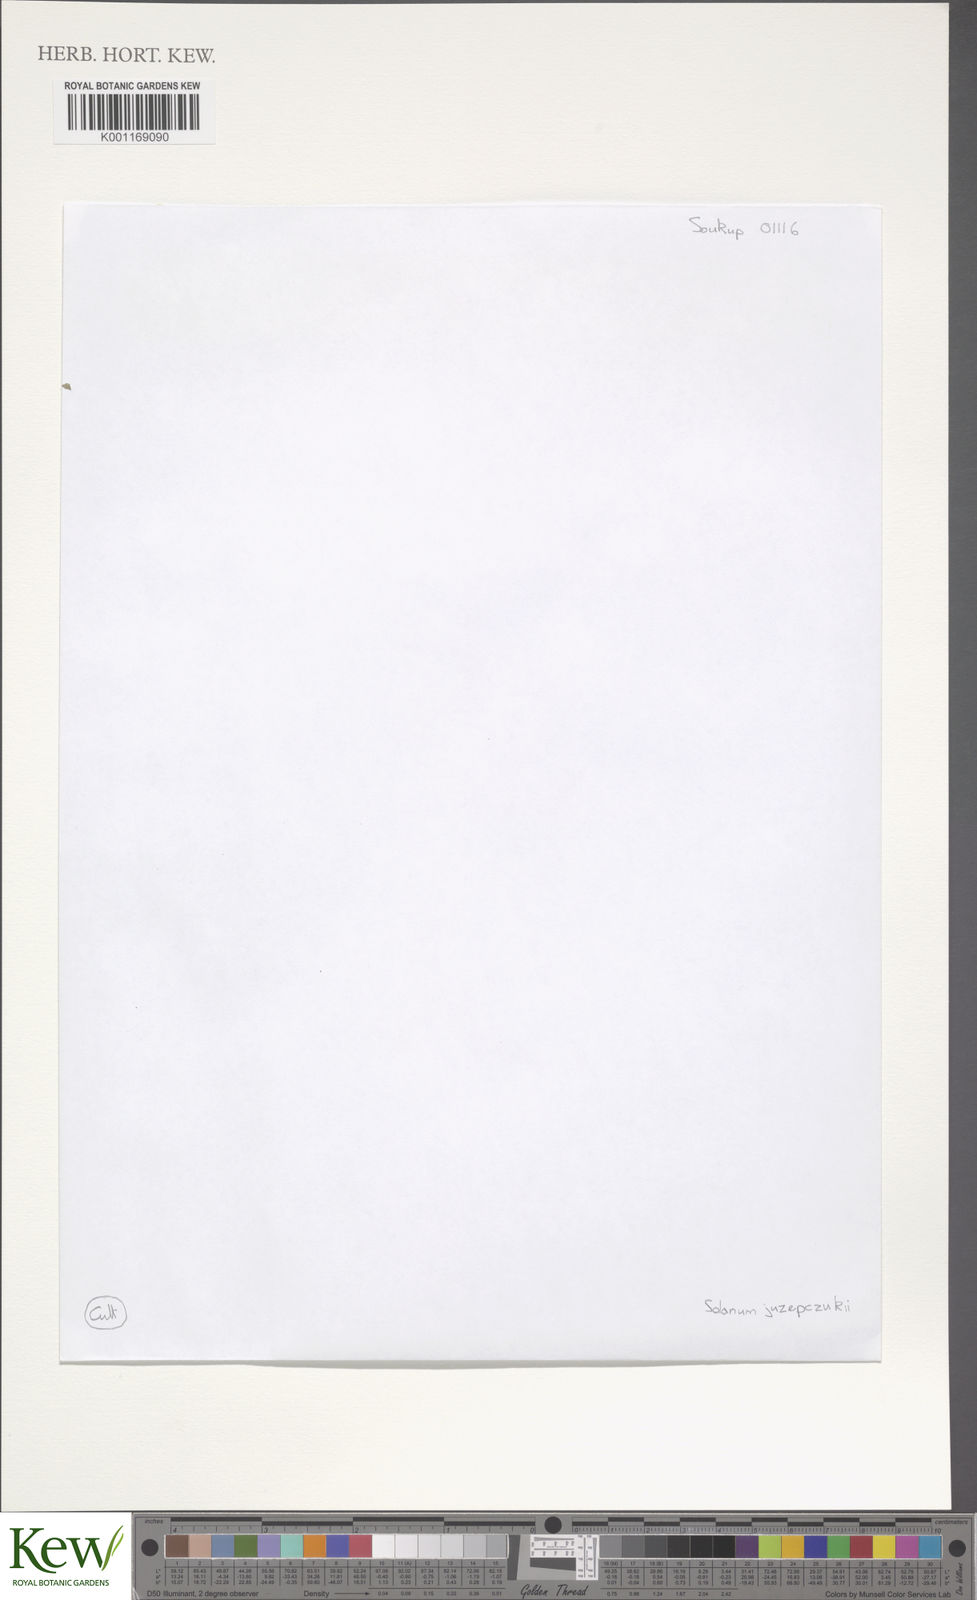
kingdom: Plantae
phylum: Tracheophyta
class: Magnoliopsida
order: Solanales
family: Solanaceae
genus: Solanum
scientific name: Solanum juzepczukii
